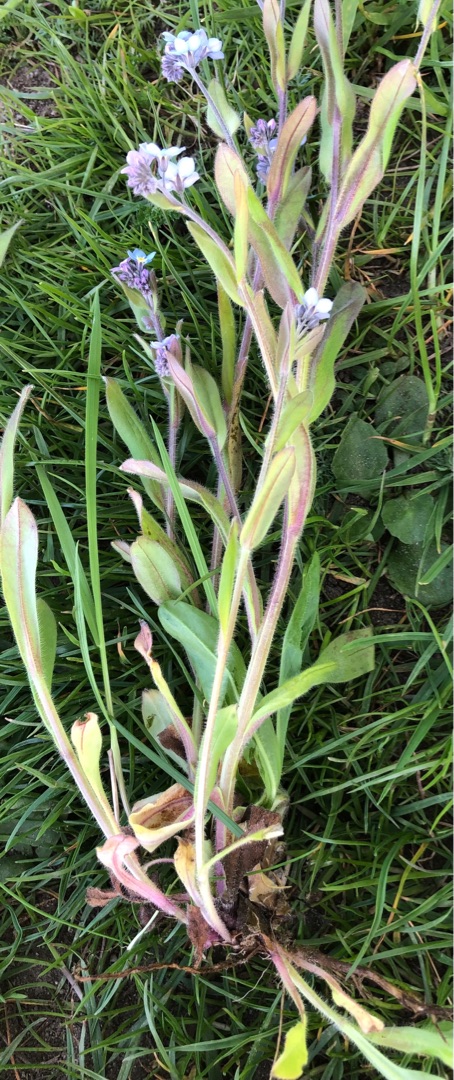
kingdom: Plantae
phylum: Tracheophyta
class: Magnoliopsida
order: Boraginales
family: Boraginaceae
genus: Myosotis
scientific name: Myosotis sylvatica
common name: Skov-forglemmigej
